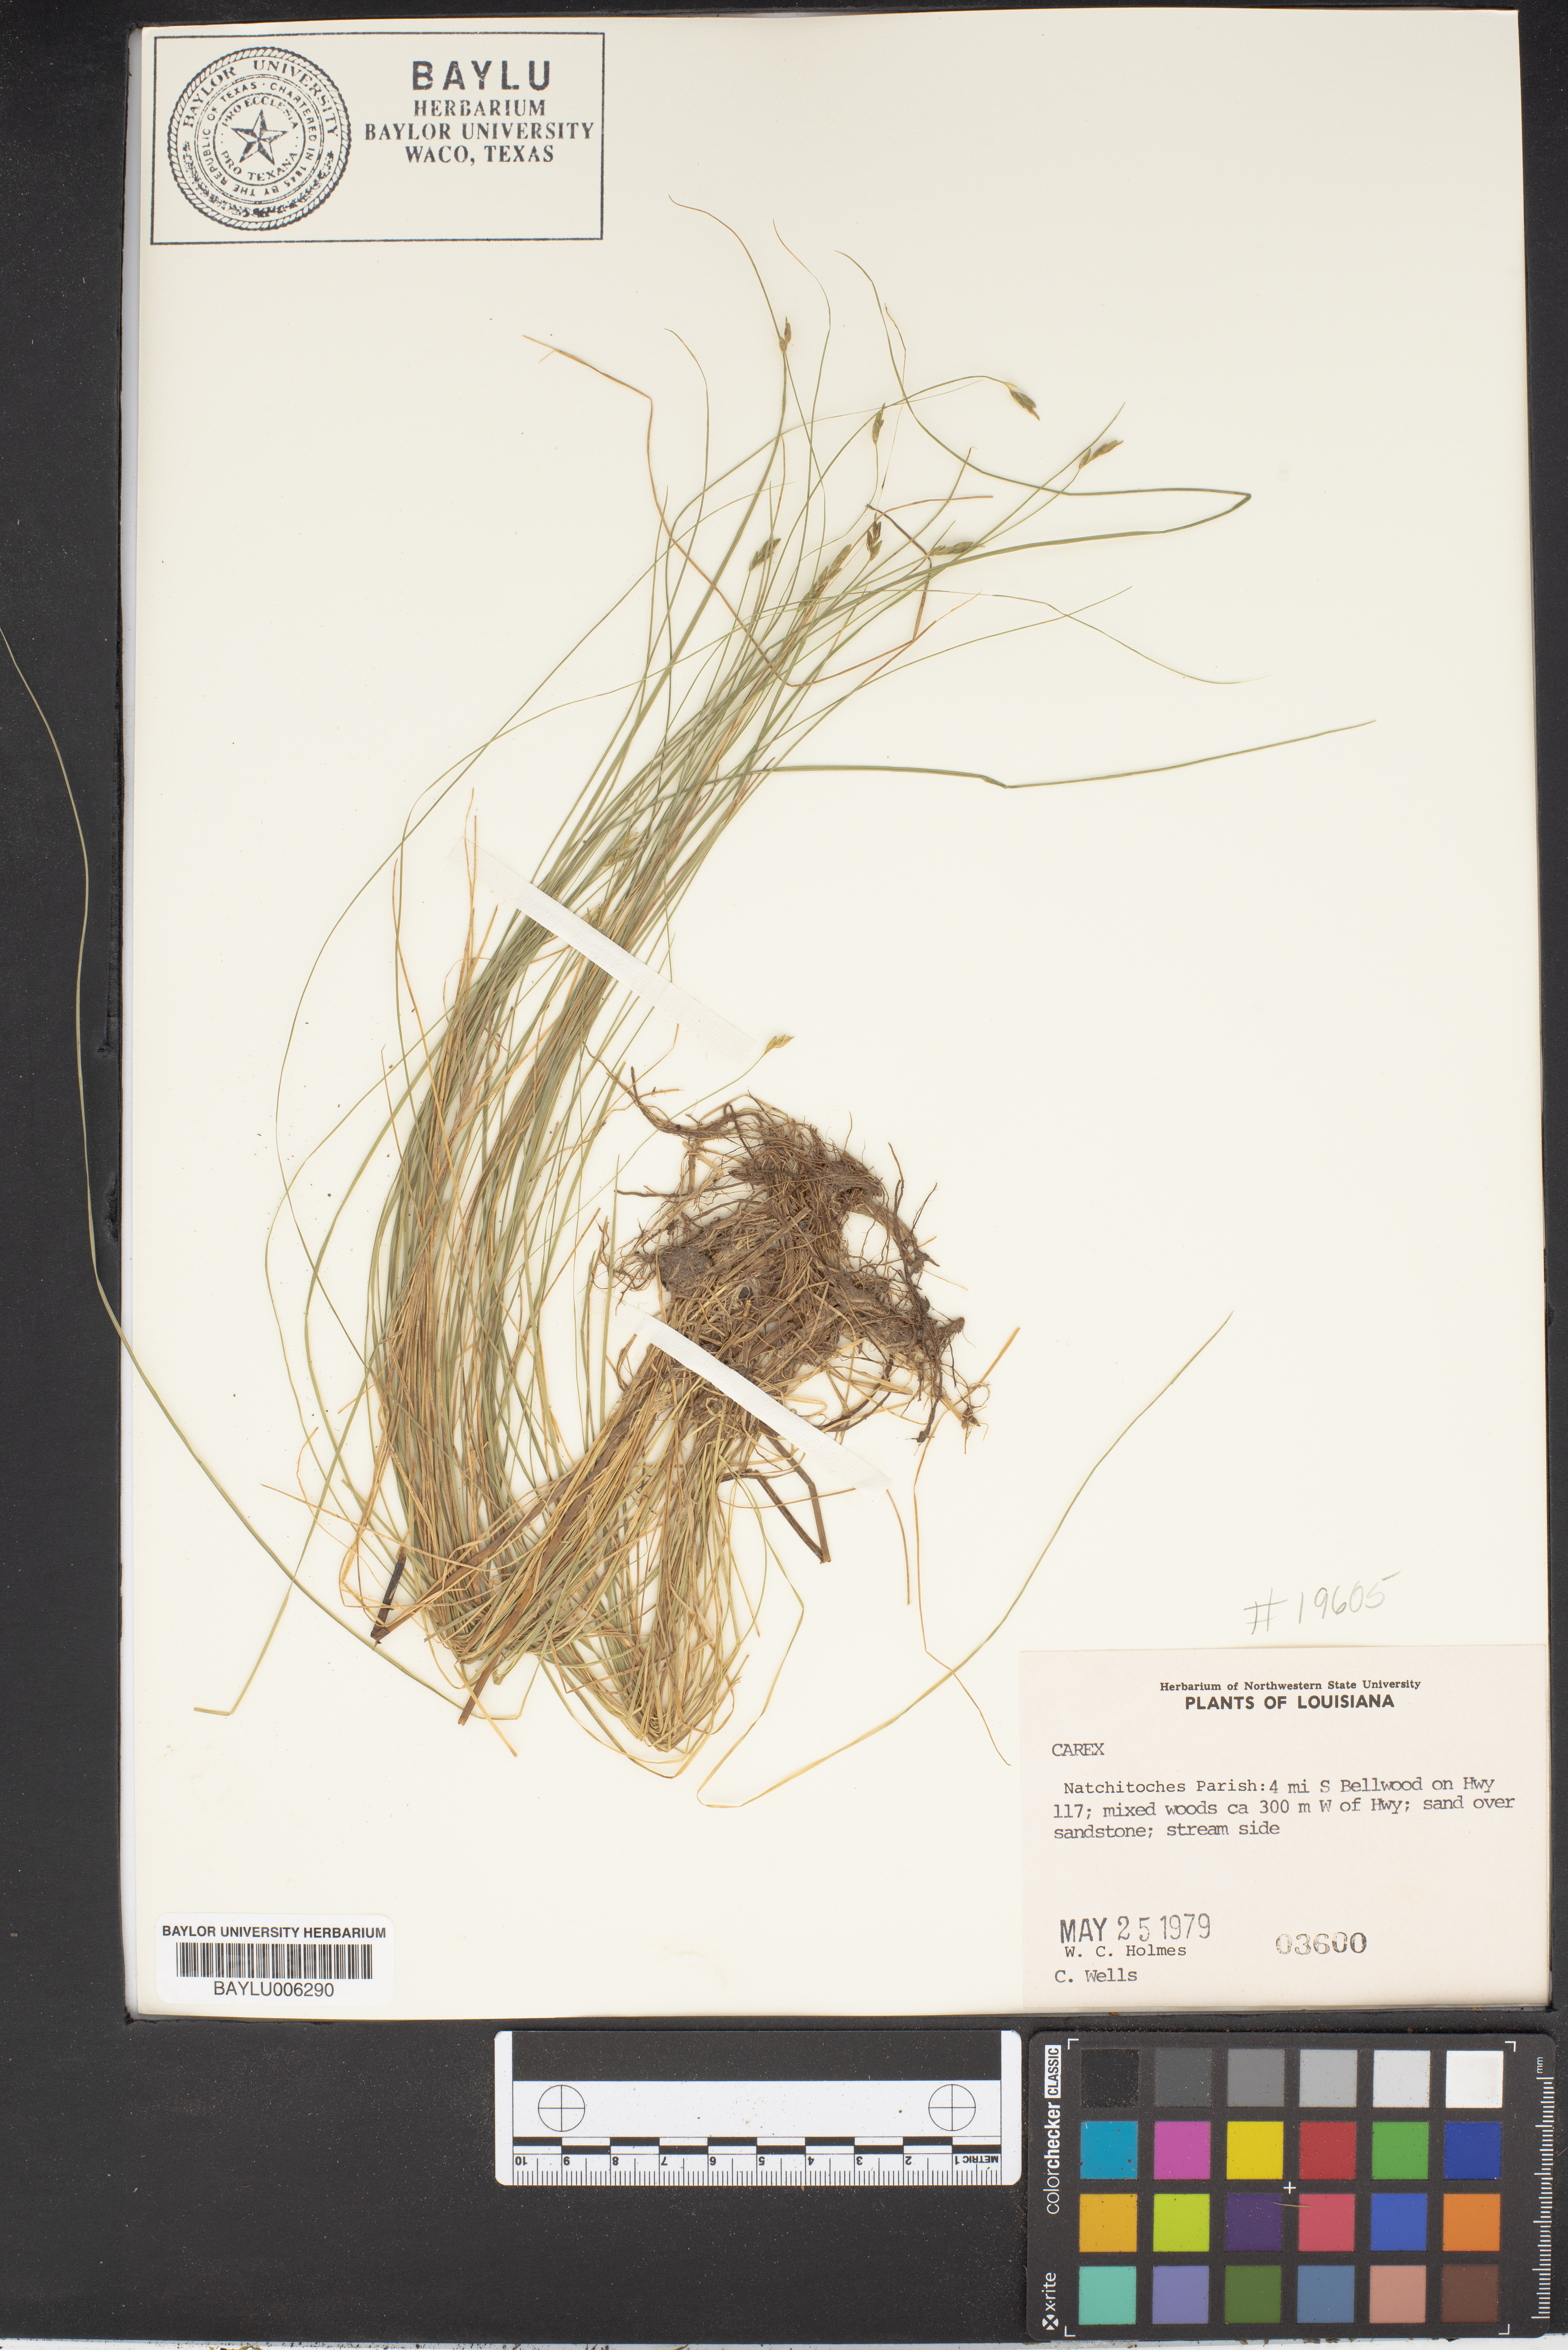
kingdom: Plantae
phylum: Tracheophyta
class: Liliopsida
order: Poales
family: Cyperaceae
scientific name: Cyperaceae
